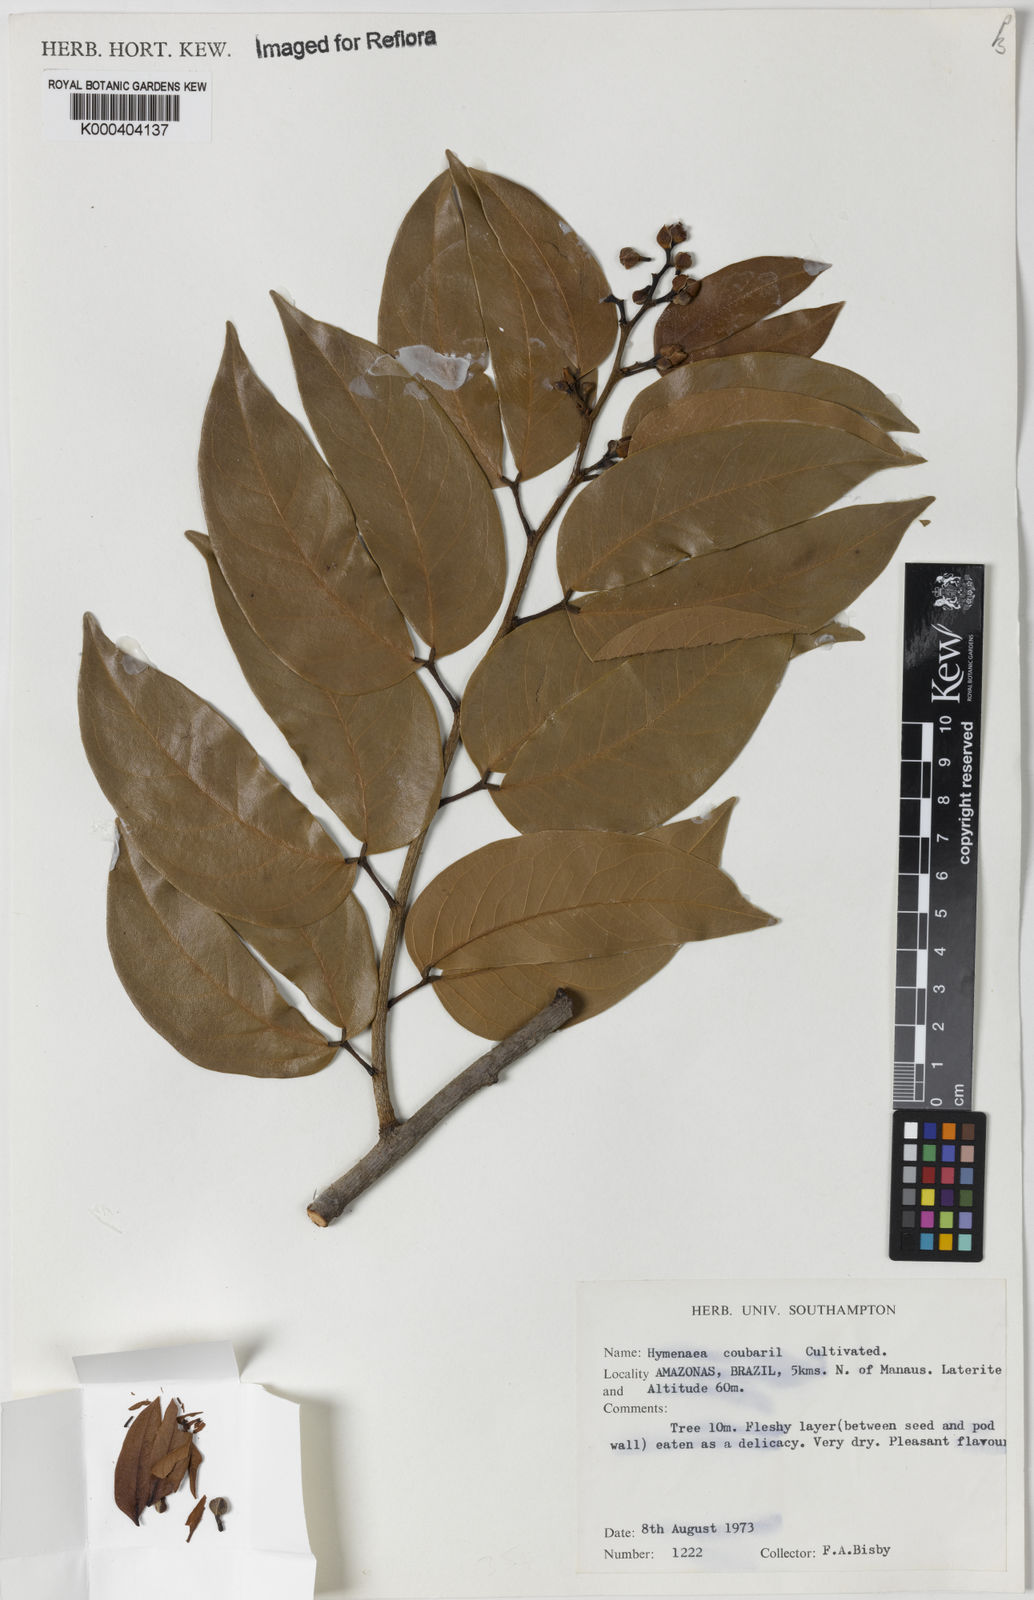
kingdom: Plantae
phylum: Tracheophyta
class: Magnoliopsida
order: Fabales
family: Fabaceae
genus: Hymenaea
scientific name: Hymenaea courbaril
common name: Brazilian copal
